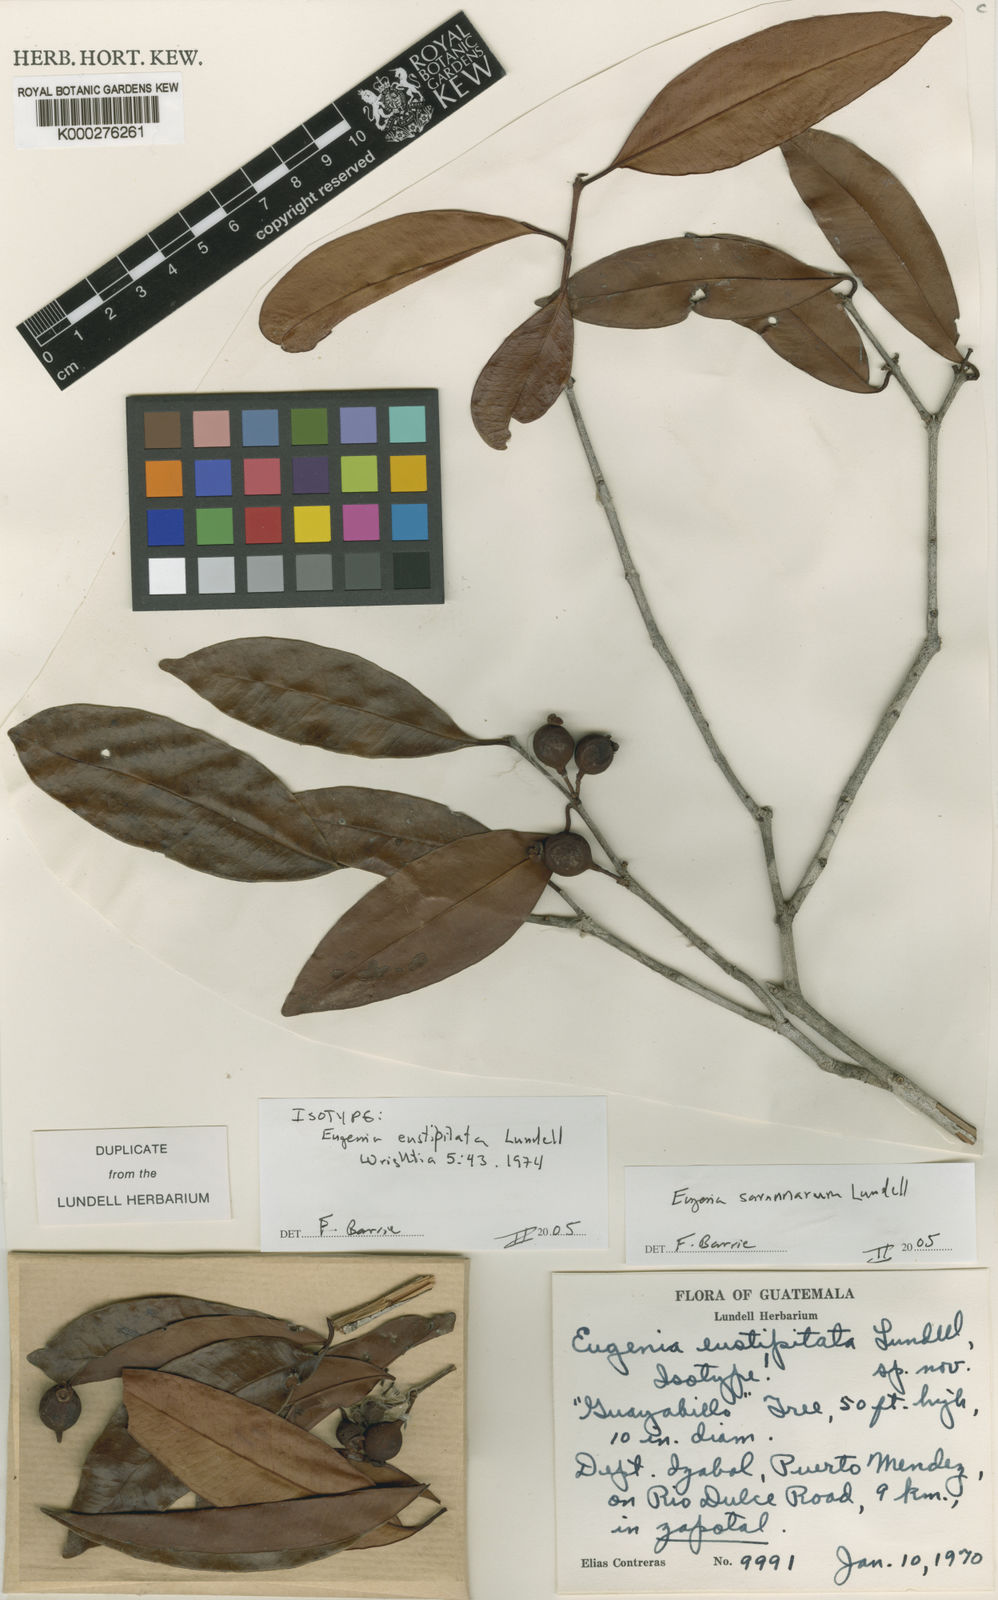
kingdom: Plantae
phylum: Tracheophyta
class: Magnoliopsida
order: Myrtales
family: Myrtaceae
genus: Eugenia
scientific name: Eugenia savannarum
